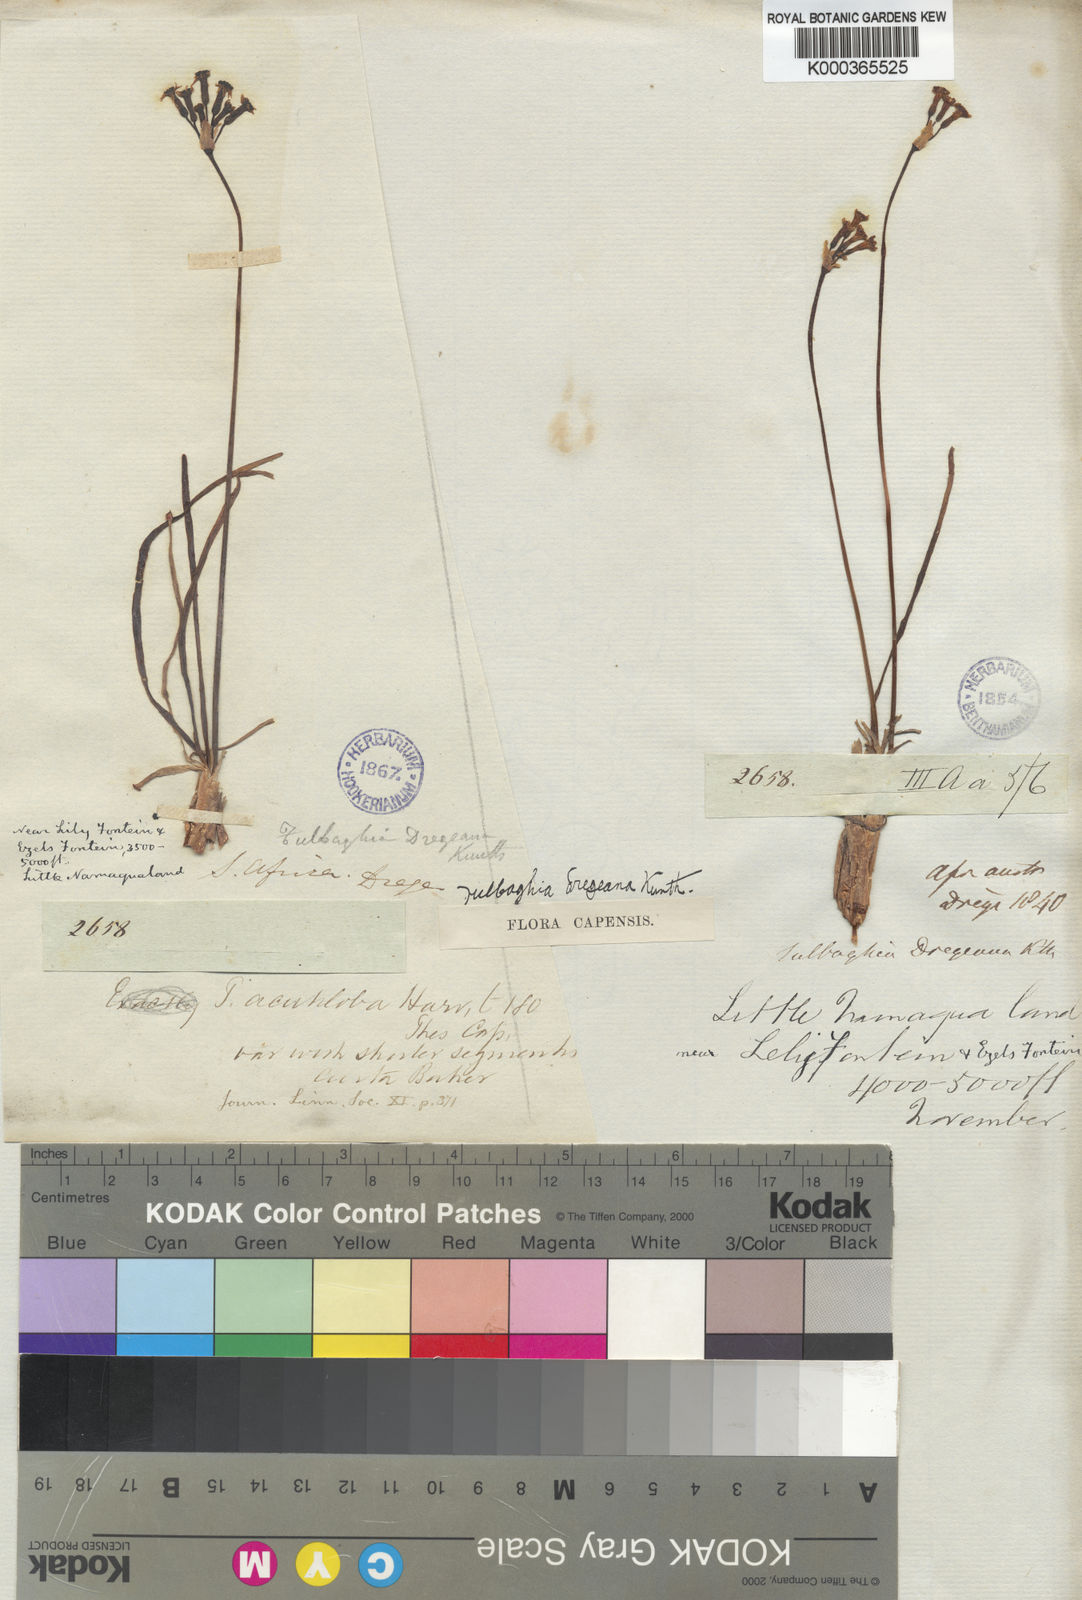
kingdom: Plantae
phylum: Tracheophyta
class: Liliopsida
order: Asparagales
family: Amaryllidaceae
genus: Tulbaghia
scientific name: Tulbaghia dregeana
